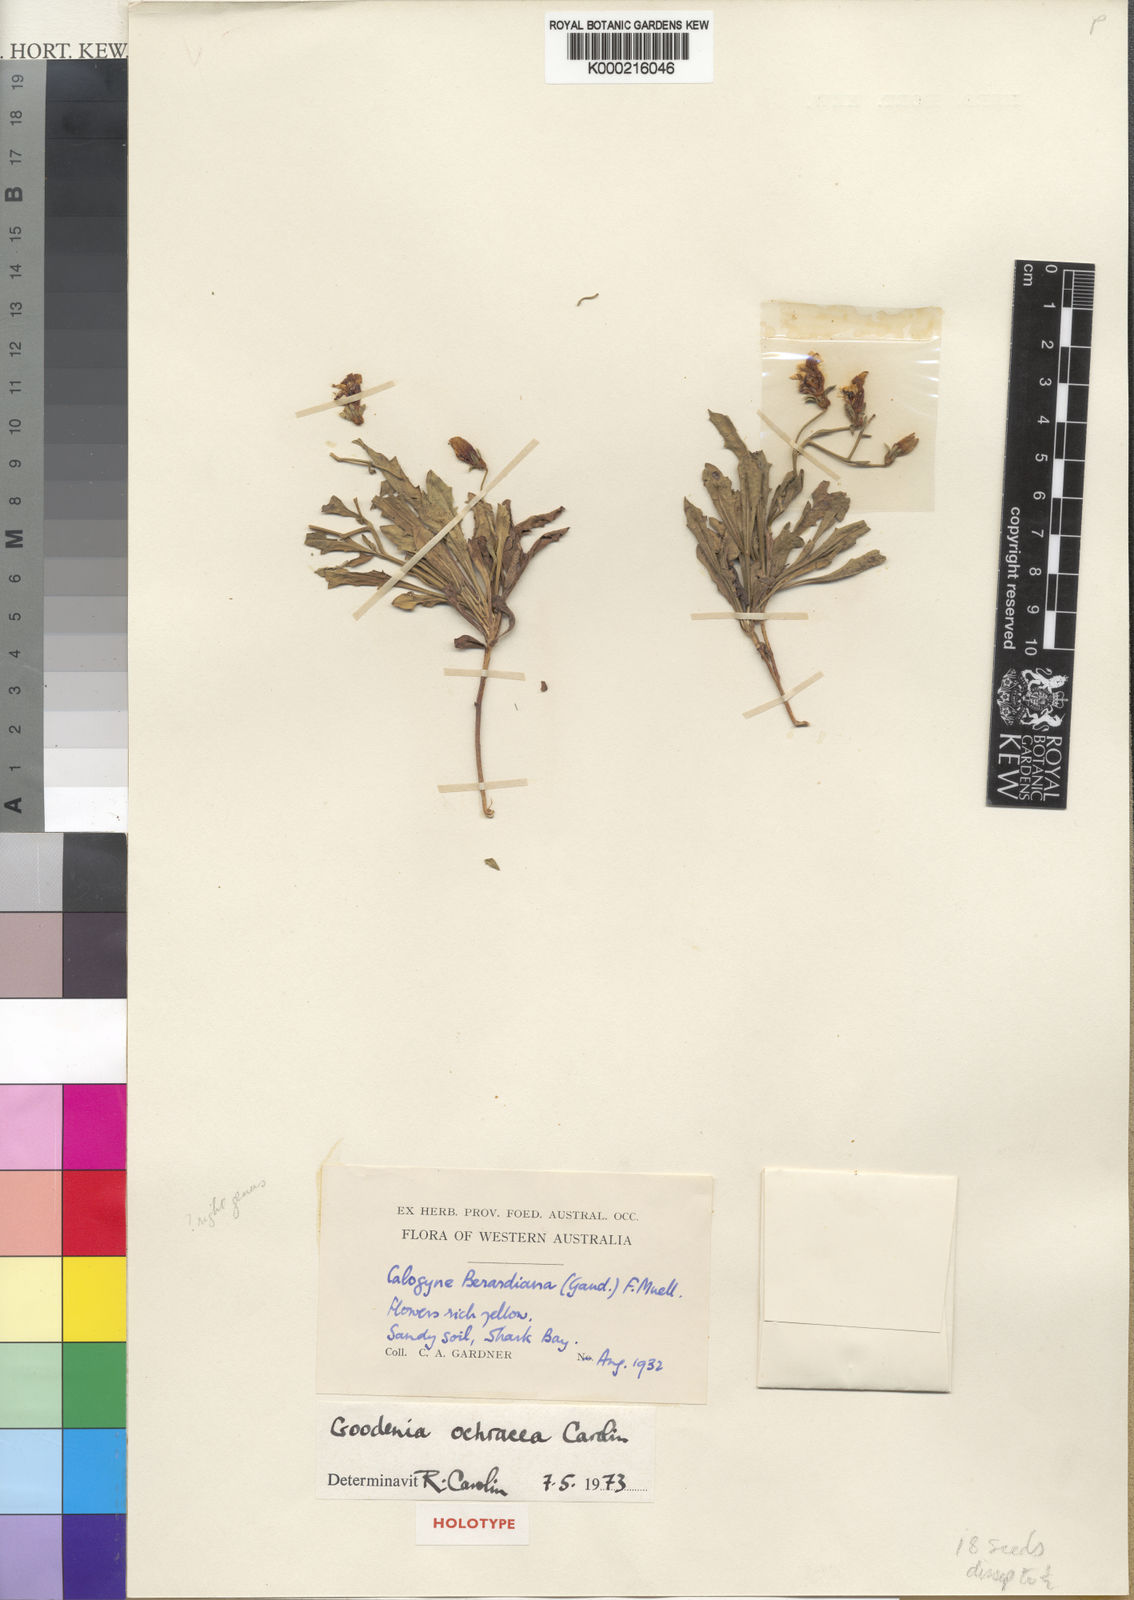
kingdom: Plantae
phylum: Tracheophyta
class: Magnoliopsida
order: Asterales
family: Goodeniaceae
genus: Goodenia
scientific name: Goodenia ochracea
